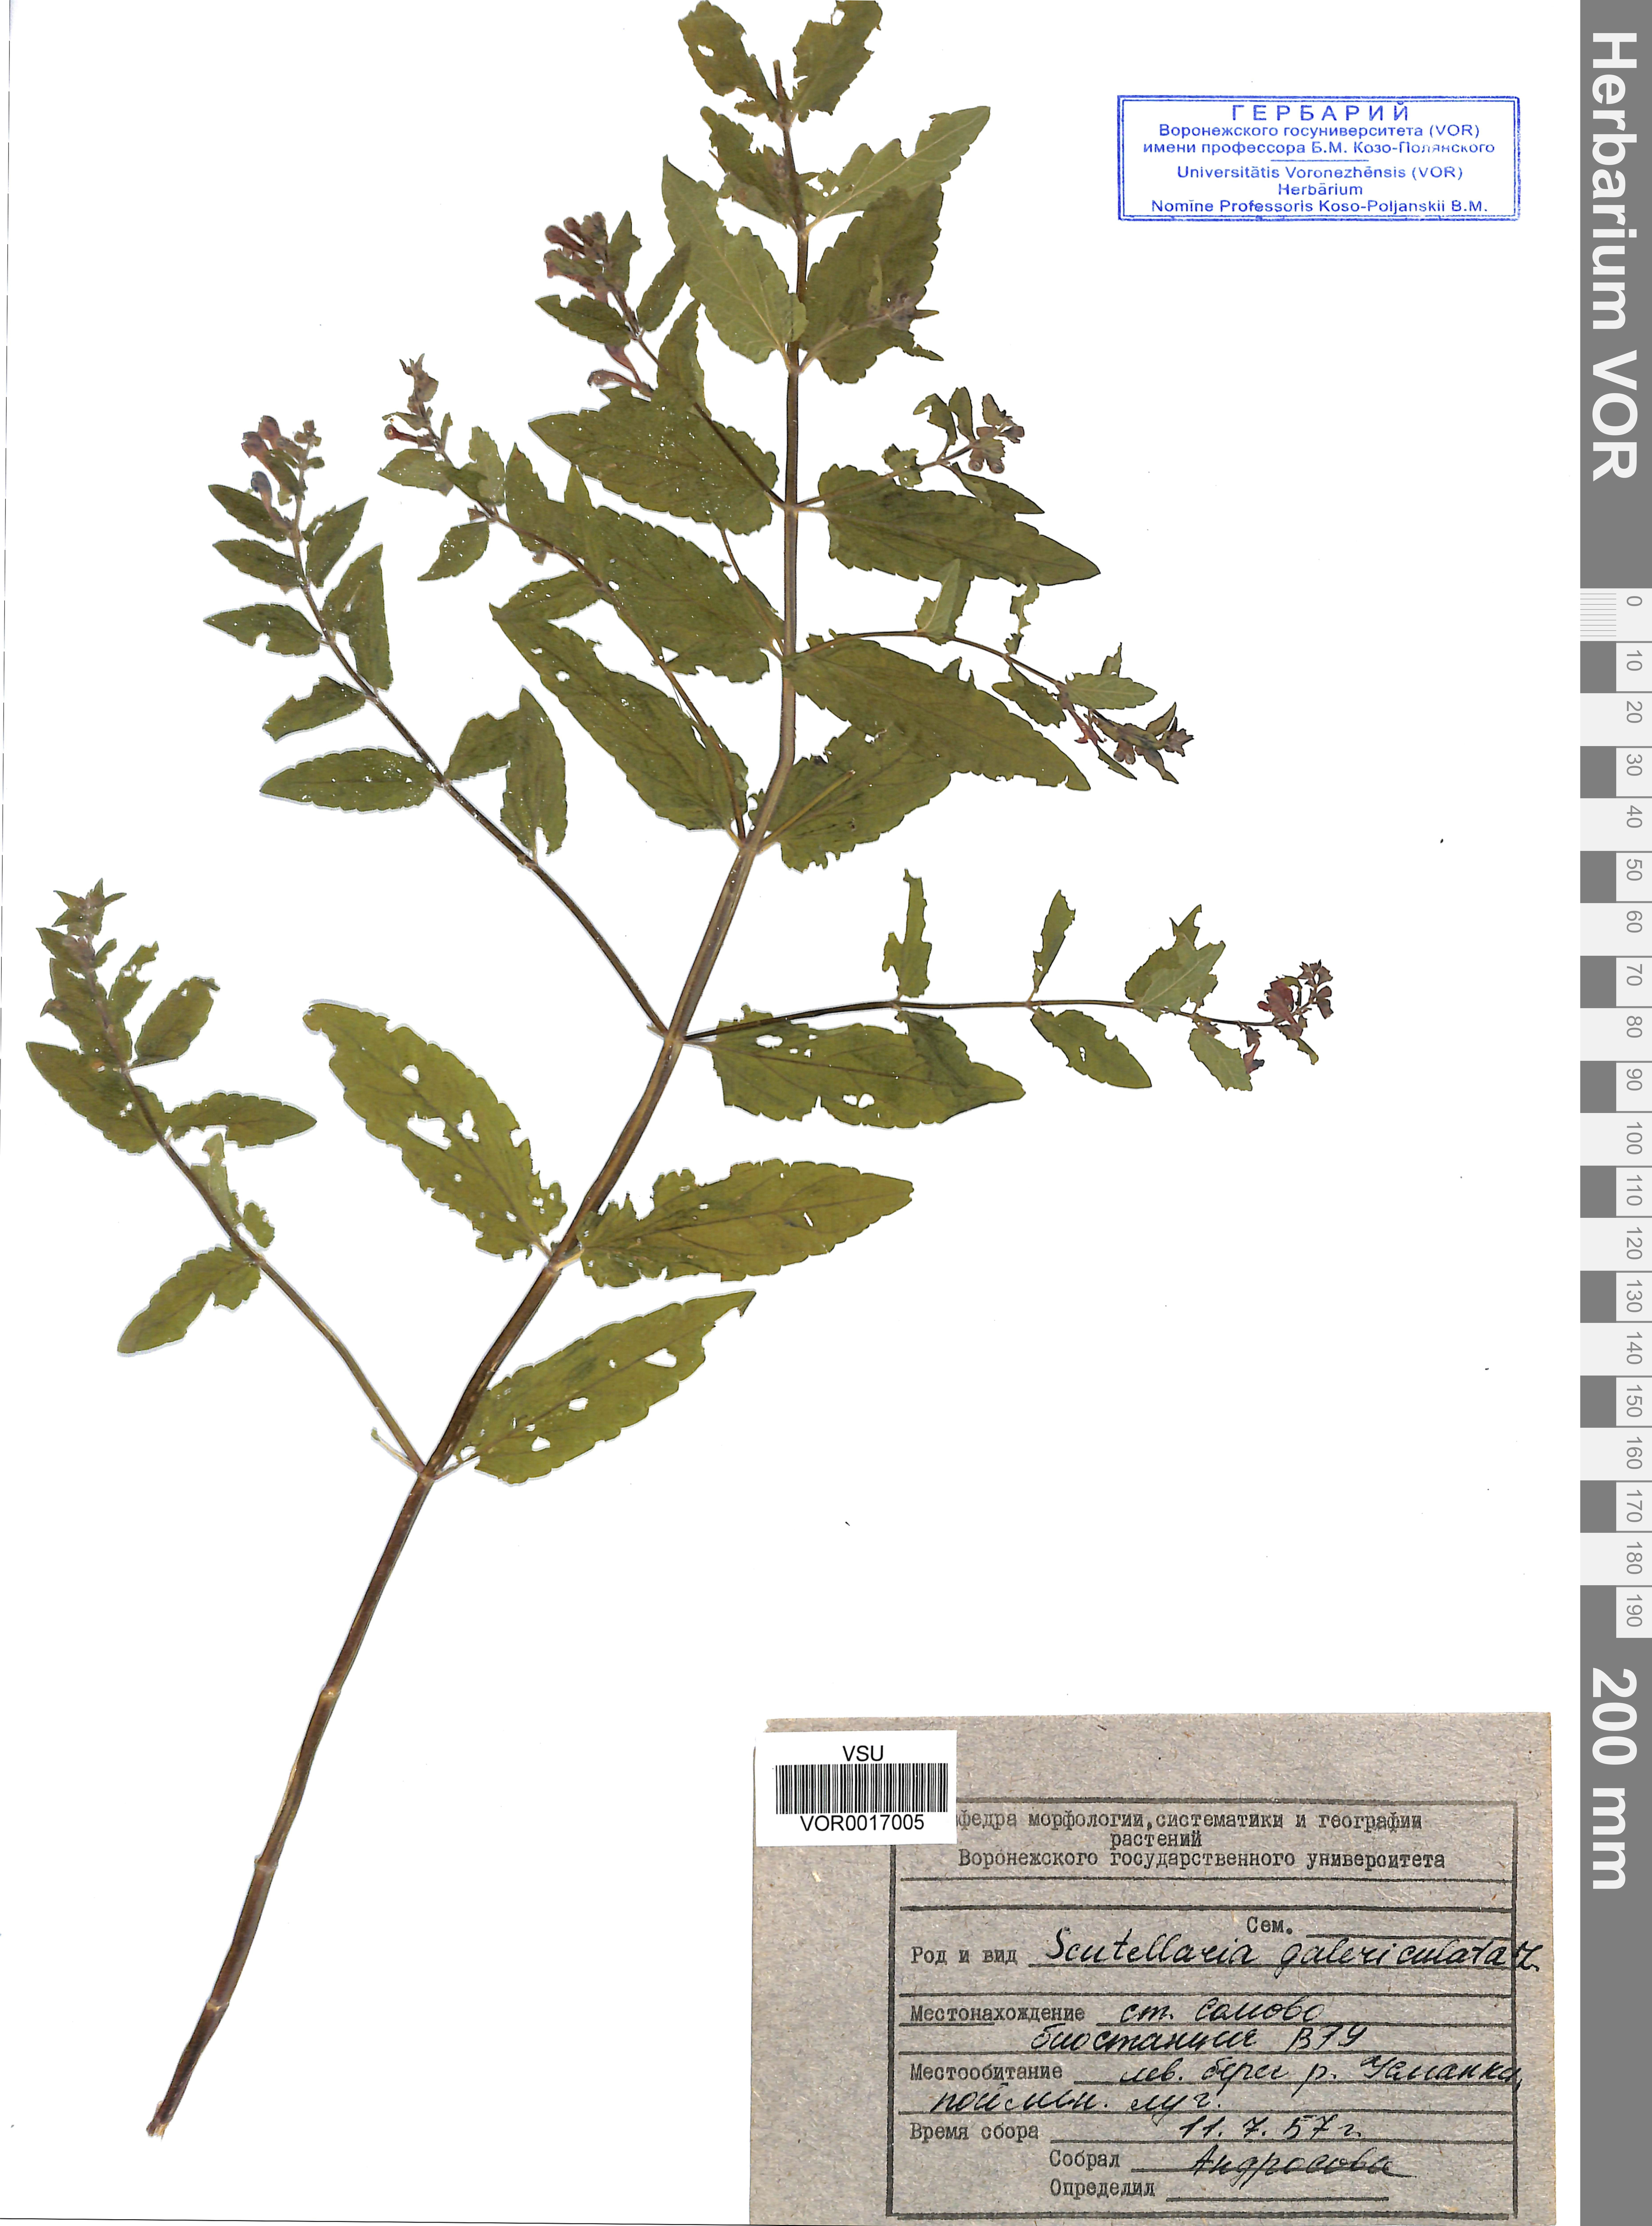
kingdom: Plantae
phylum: Tracheophyta
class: Magnoliopsida
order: Lamiales
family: Lamiaceae
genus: Scutellaria
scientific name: Scutellaria galericulata
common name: Skullcap
